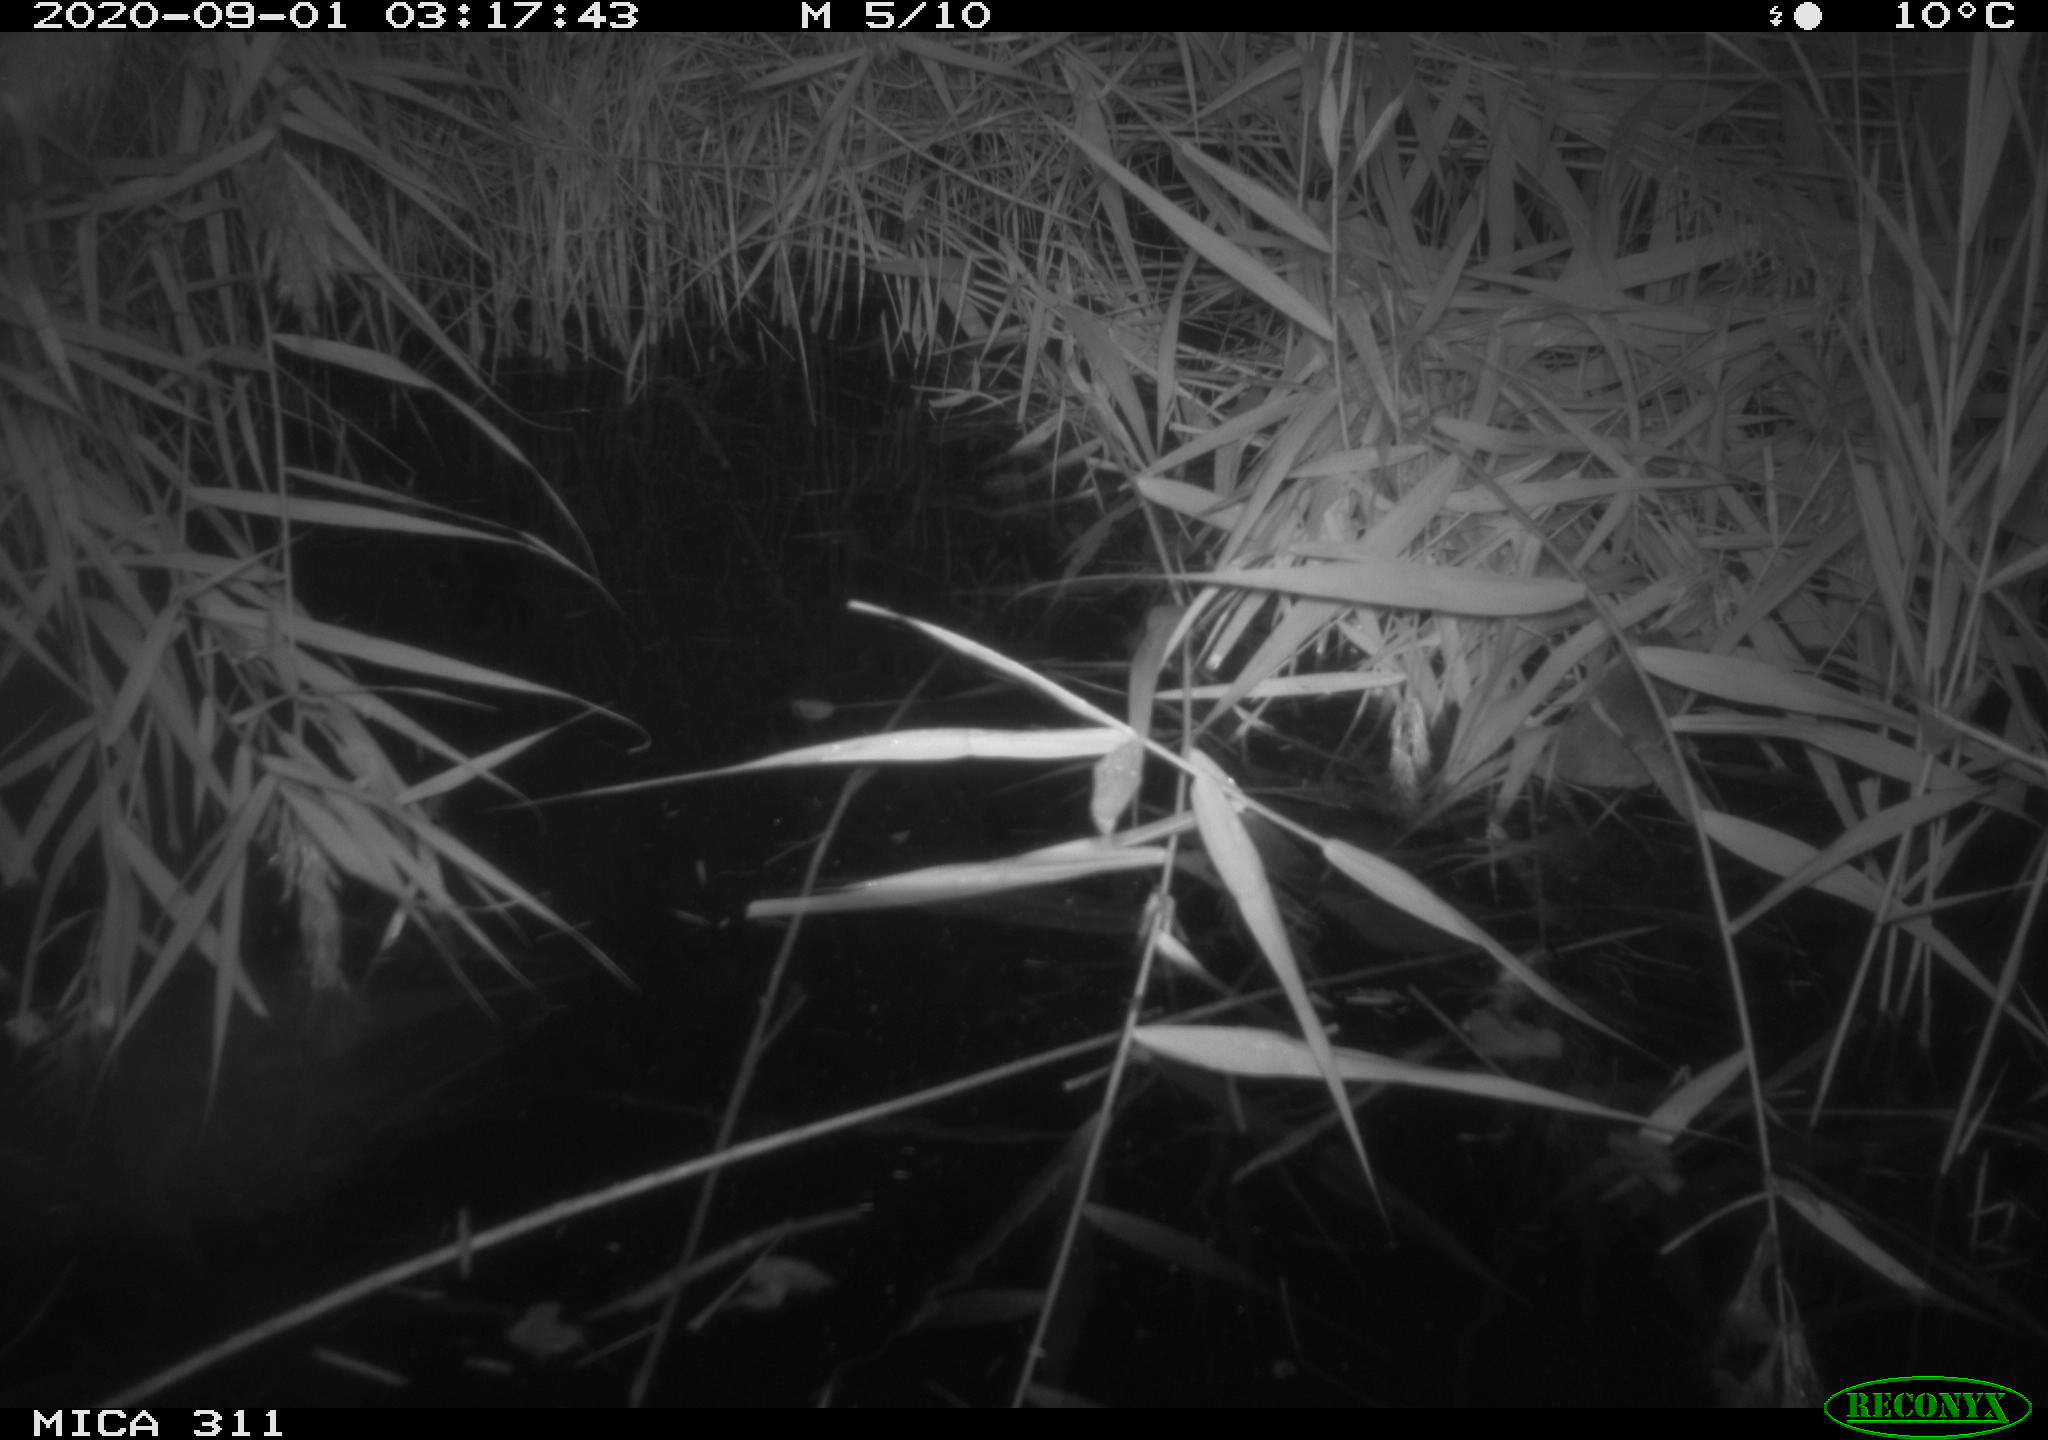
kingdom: Animalia
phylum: Chordata
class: Mammalia
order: Rodentia
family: Muridae
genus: Rattus
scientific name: Rattus norvegicus
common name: Brown rat
